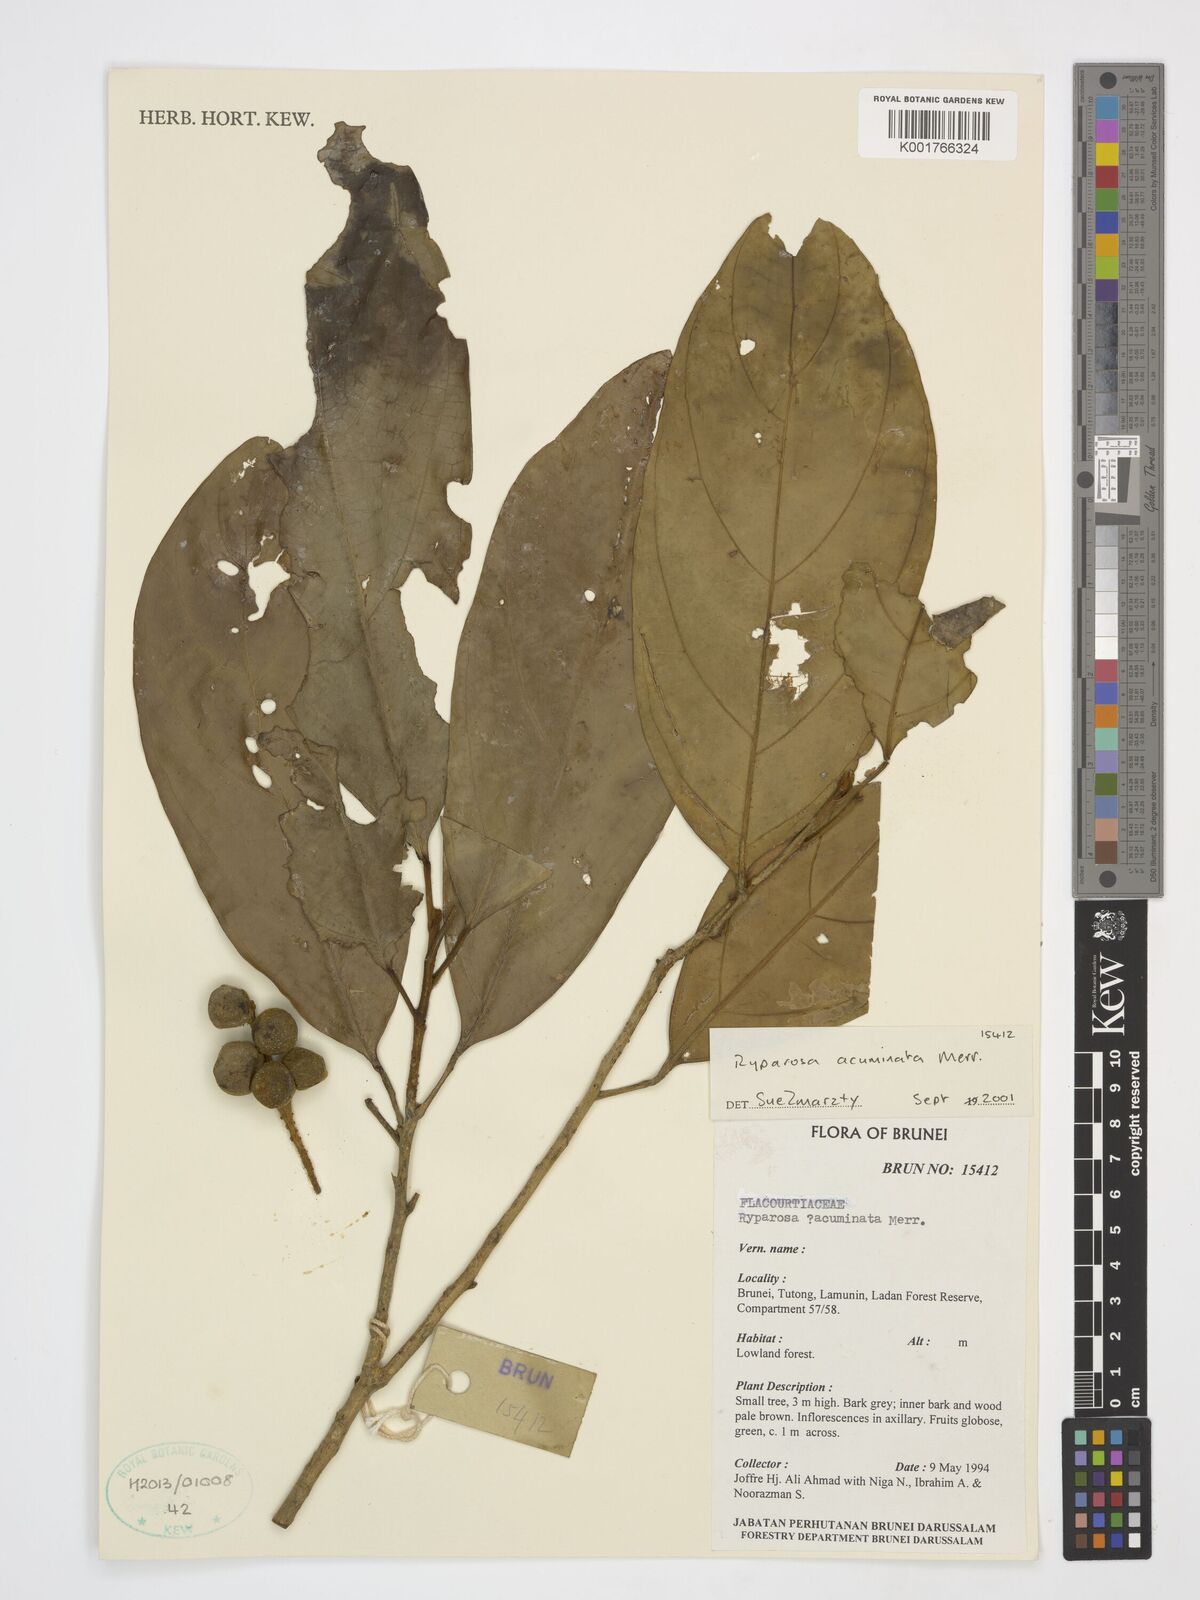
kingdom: Plantae
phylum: Tracheophyta
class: Magnoliopsida
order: Malpighiales
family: Achariaceae
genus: Ryparosa
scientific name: Ryparosa acuminata
